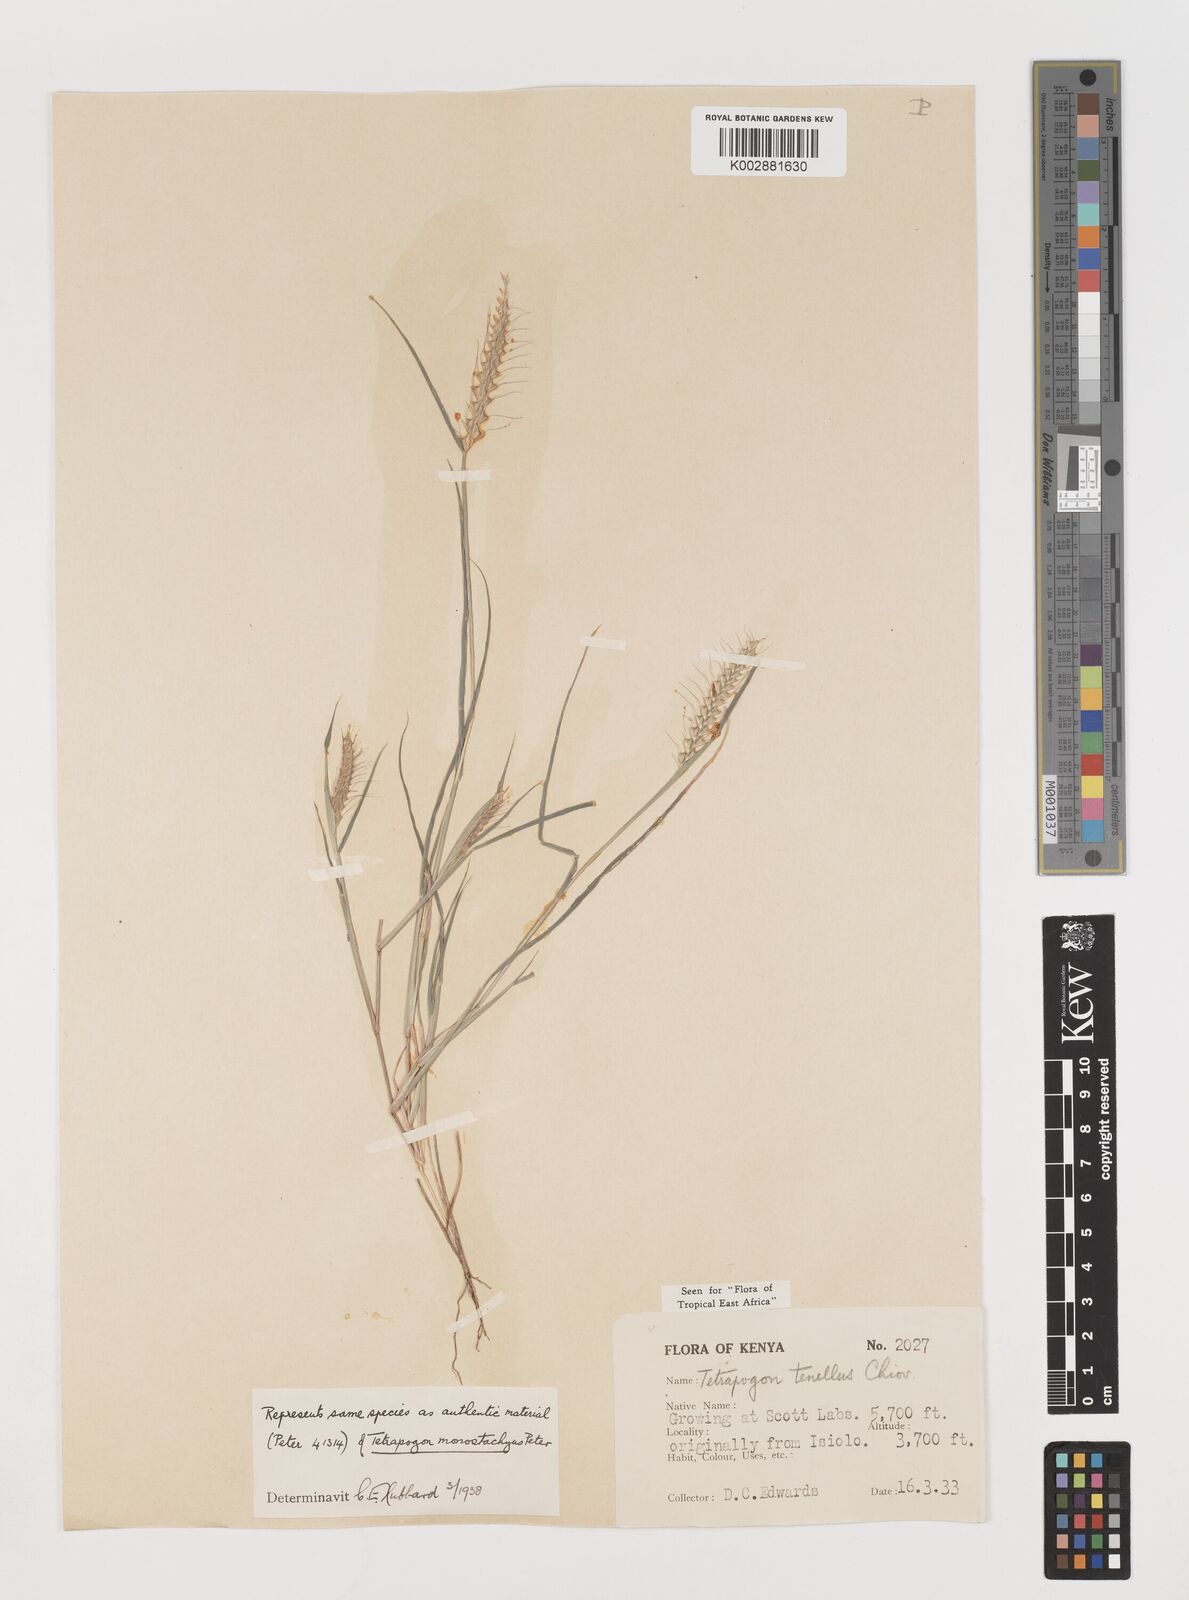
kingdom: Plantae
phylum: Tracheophyta
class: Liliopsida
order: Poales
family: Poaceae
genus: Tetrapogon
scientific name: Tetrapogon tenellus
